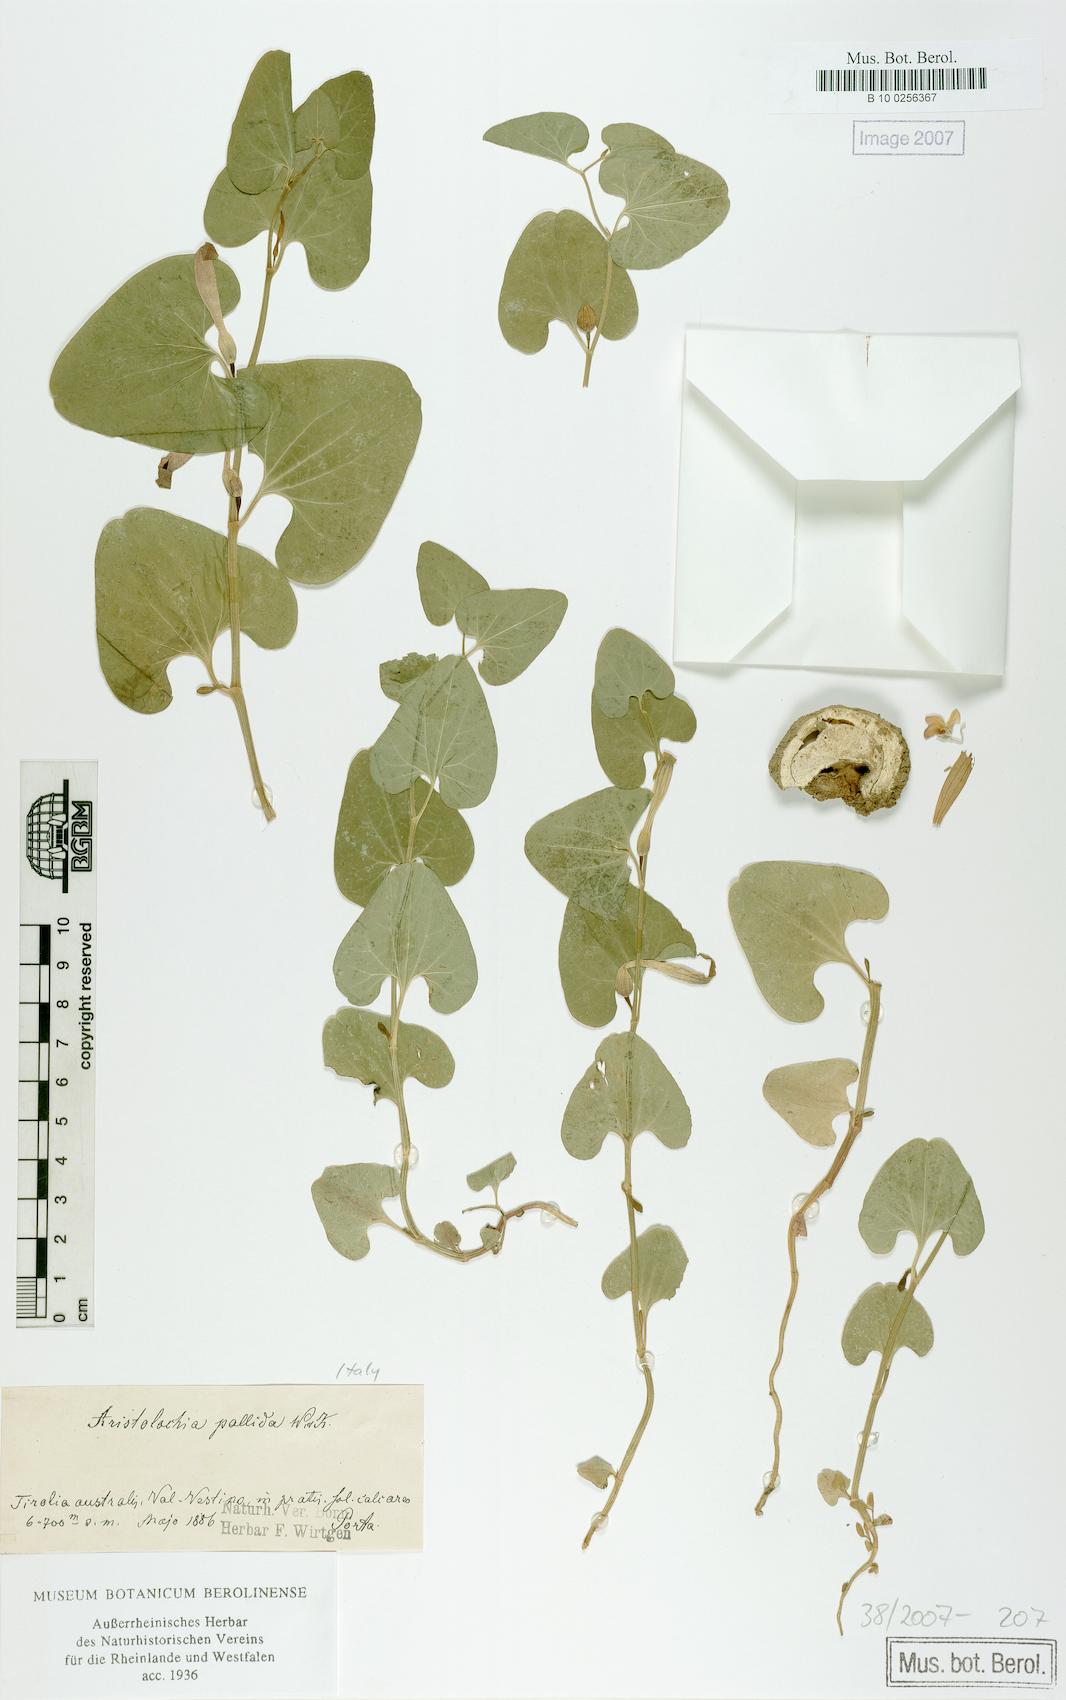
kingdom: Plantae
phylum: Tracheophyta
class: Magnoliopsida
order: Piperales
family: Aristolochiaceae
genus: Aristolochia
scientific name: Aristolochia pallida
